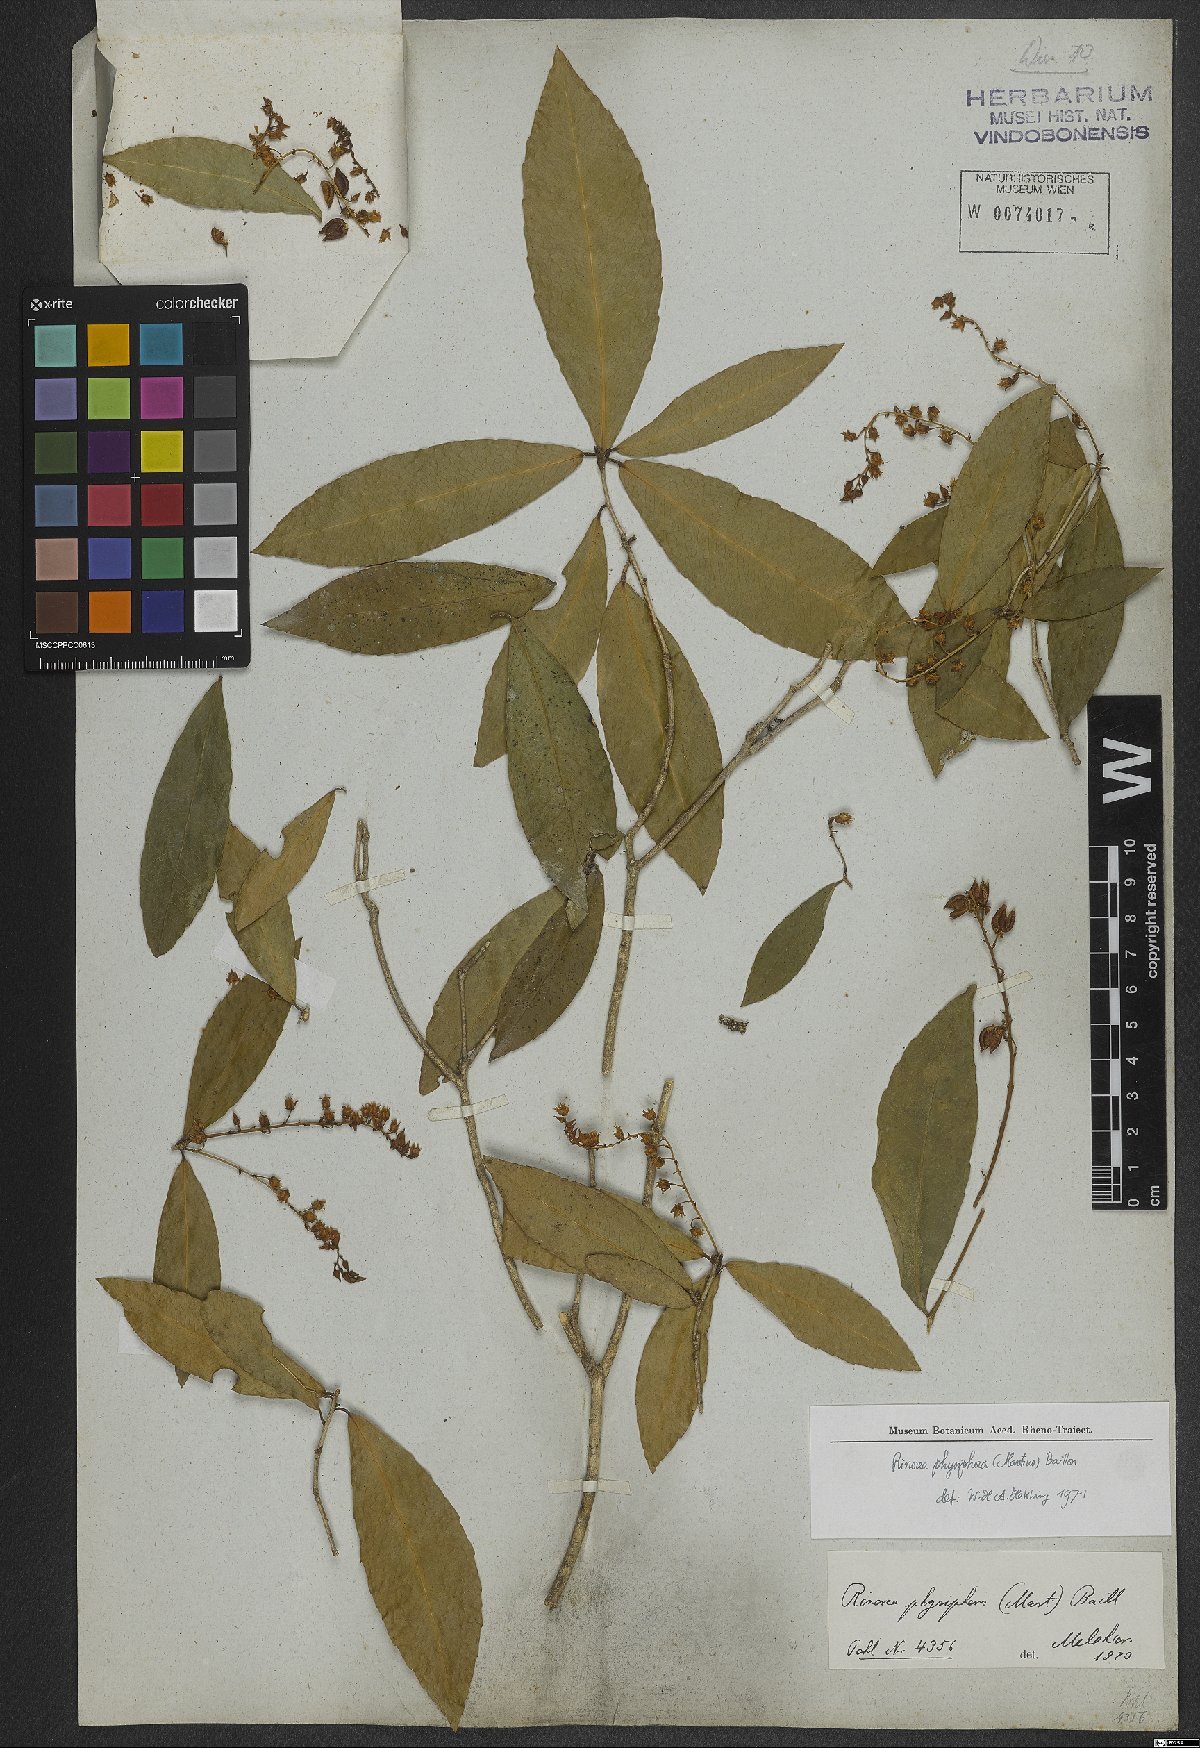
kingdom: Plantae
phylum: Tracheophyta
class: Magnoliopsida
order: Malpighiales
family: Violaceae
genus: Rinorea
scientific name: Rinorea laevigata
